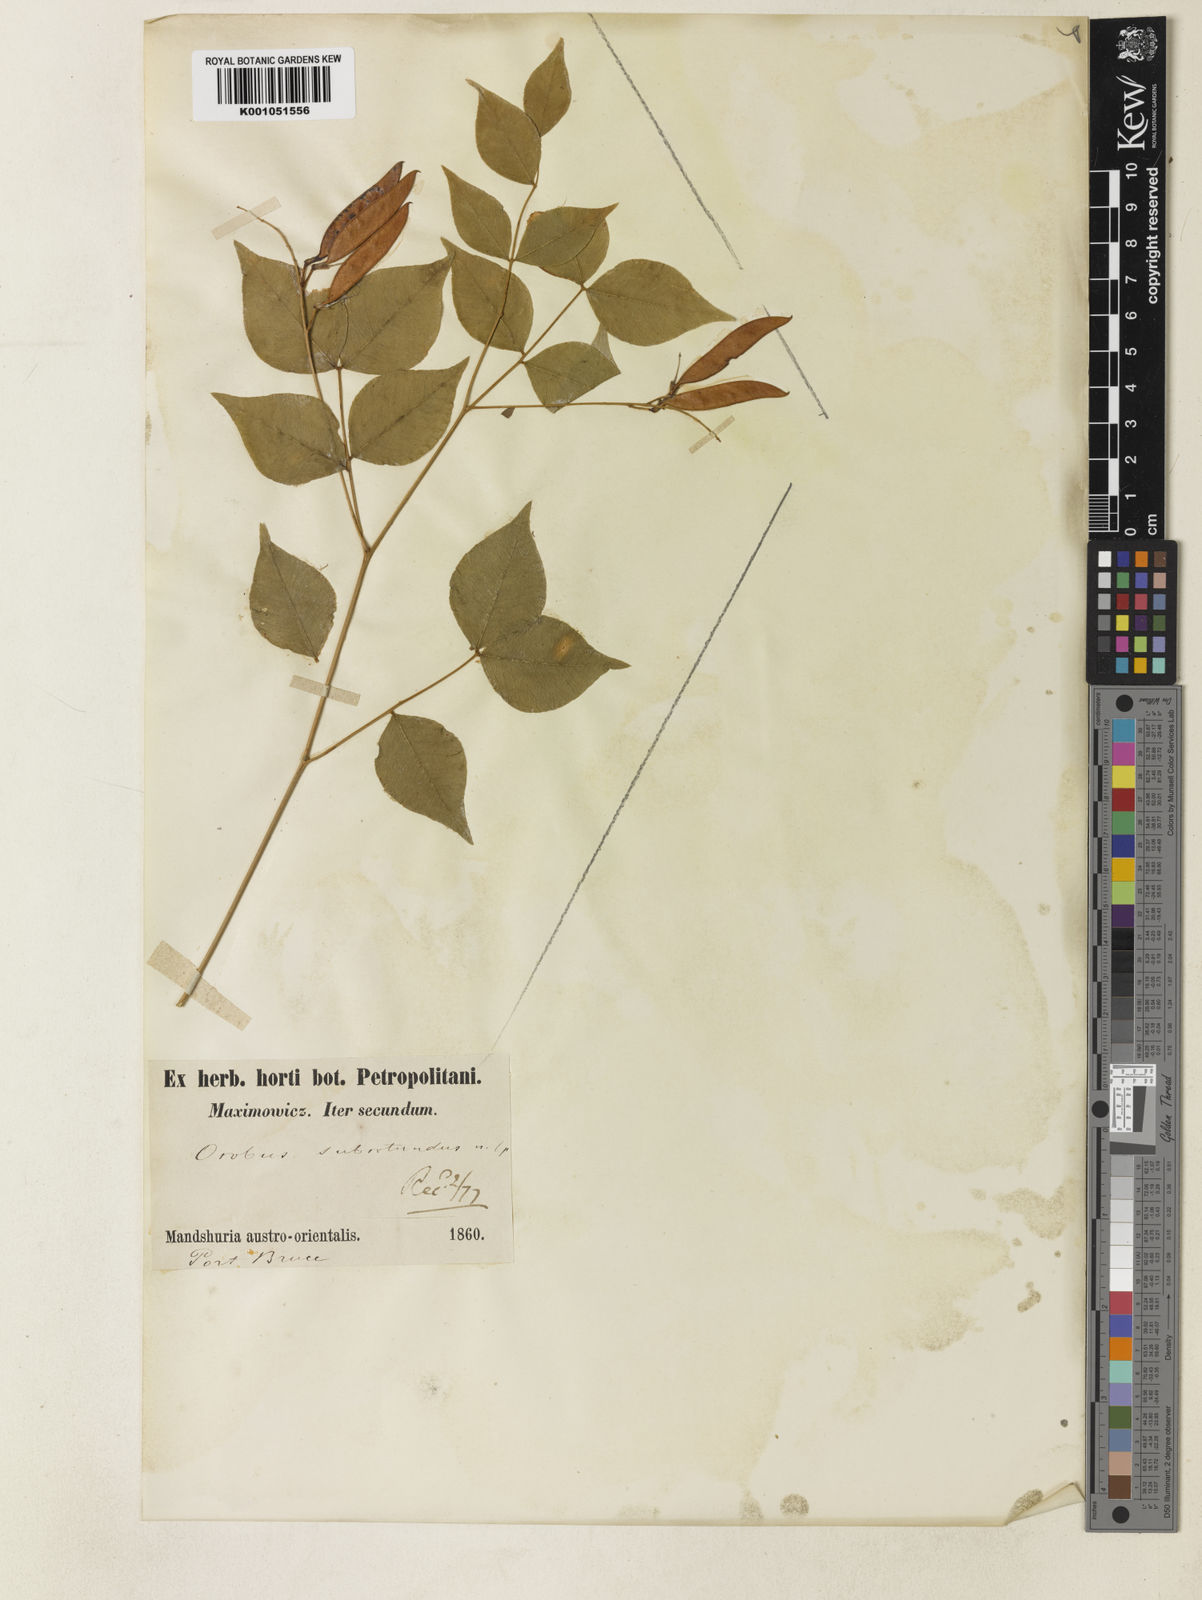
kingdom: Plantae
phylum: Tracheophyta
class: Magnoliopsida
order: Fabales
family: Fabaceae
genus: Vicia
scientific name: Vicia subrotunda
